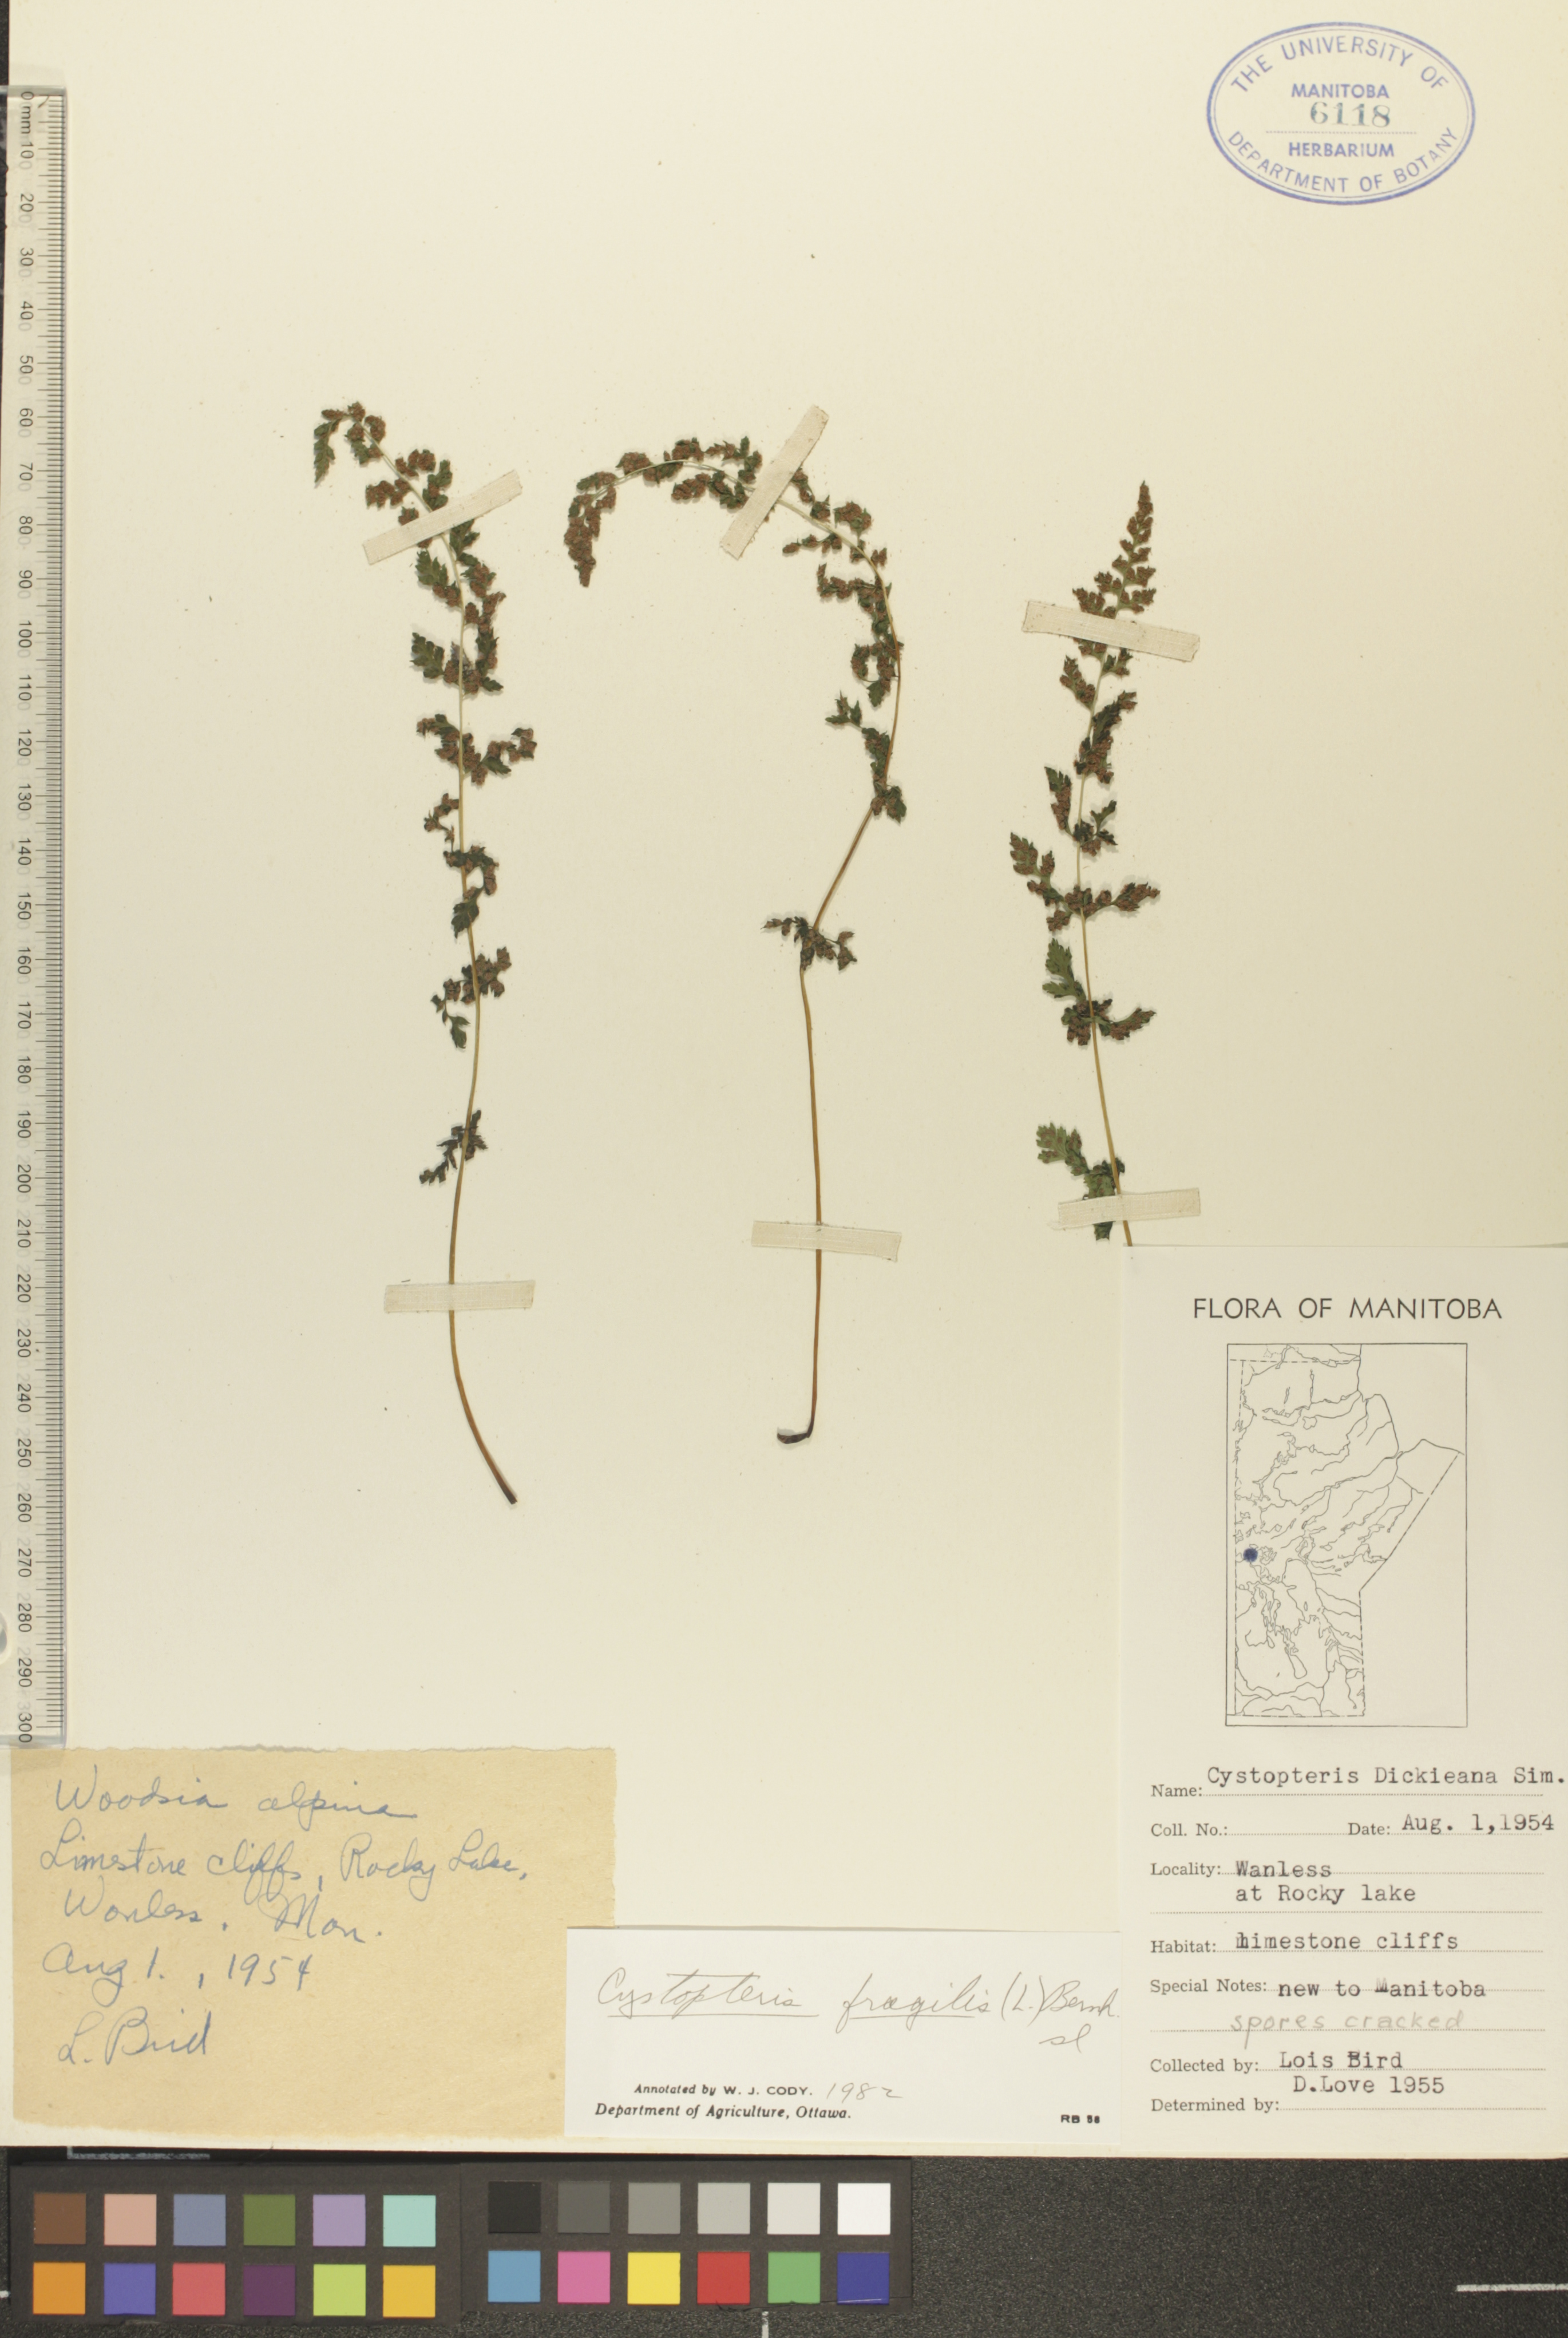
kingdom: Plantae
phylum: Tracheophyta
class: Polypodiopsida
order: Polypodiales
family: Cystopteridaceae
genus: Cystopteris
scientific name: Cystopteris fragilis
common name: Brittle bladder fern
